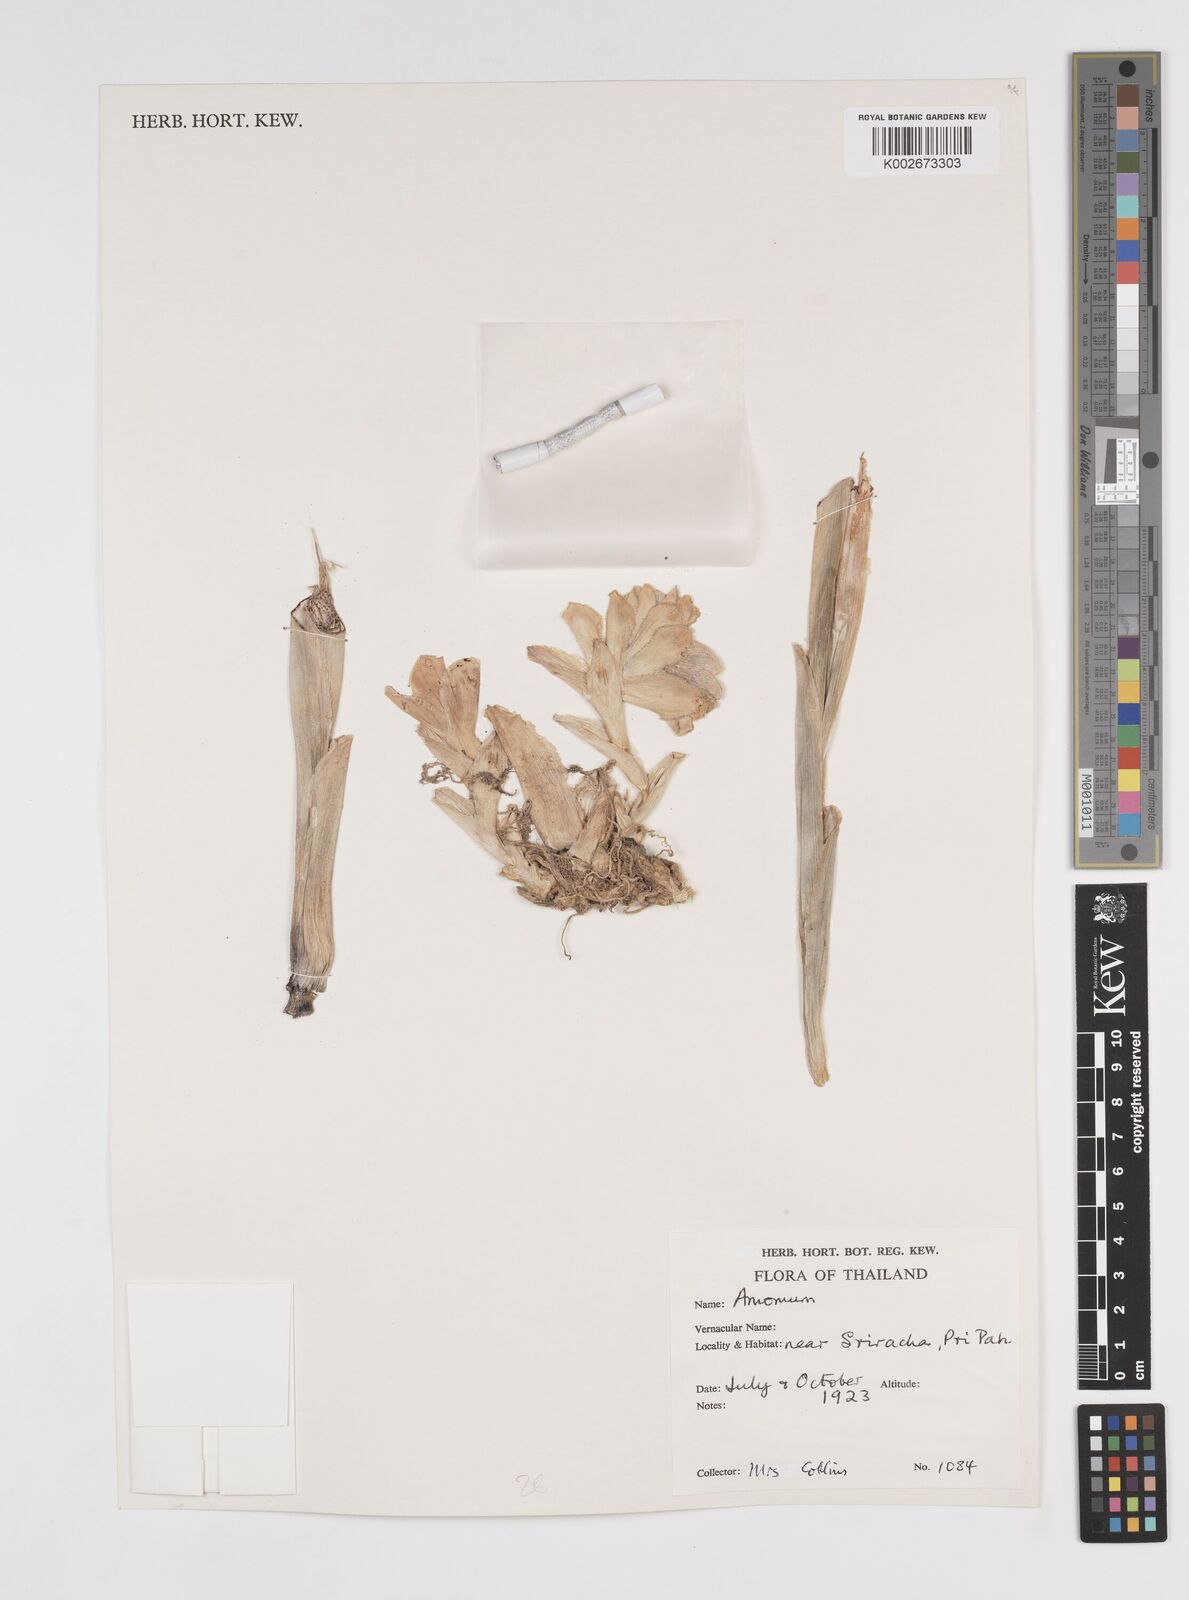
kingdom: Plantae
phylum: Tracheophyta
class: Liliopsida
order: Zingiberales
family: Zingiberaceae
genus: Amomum
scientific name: Amomum
